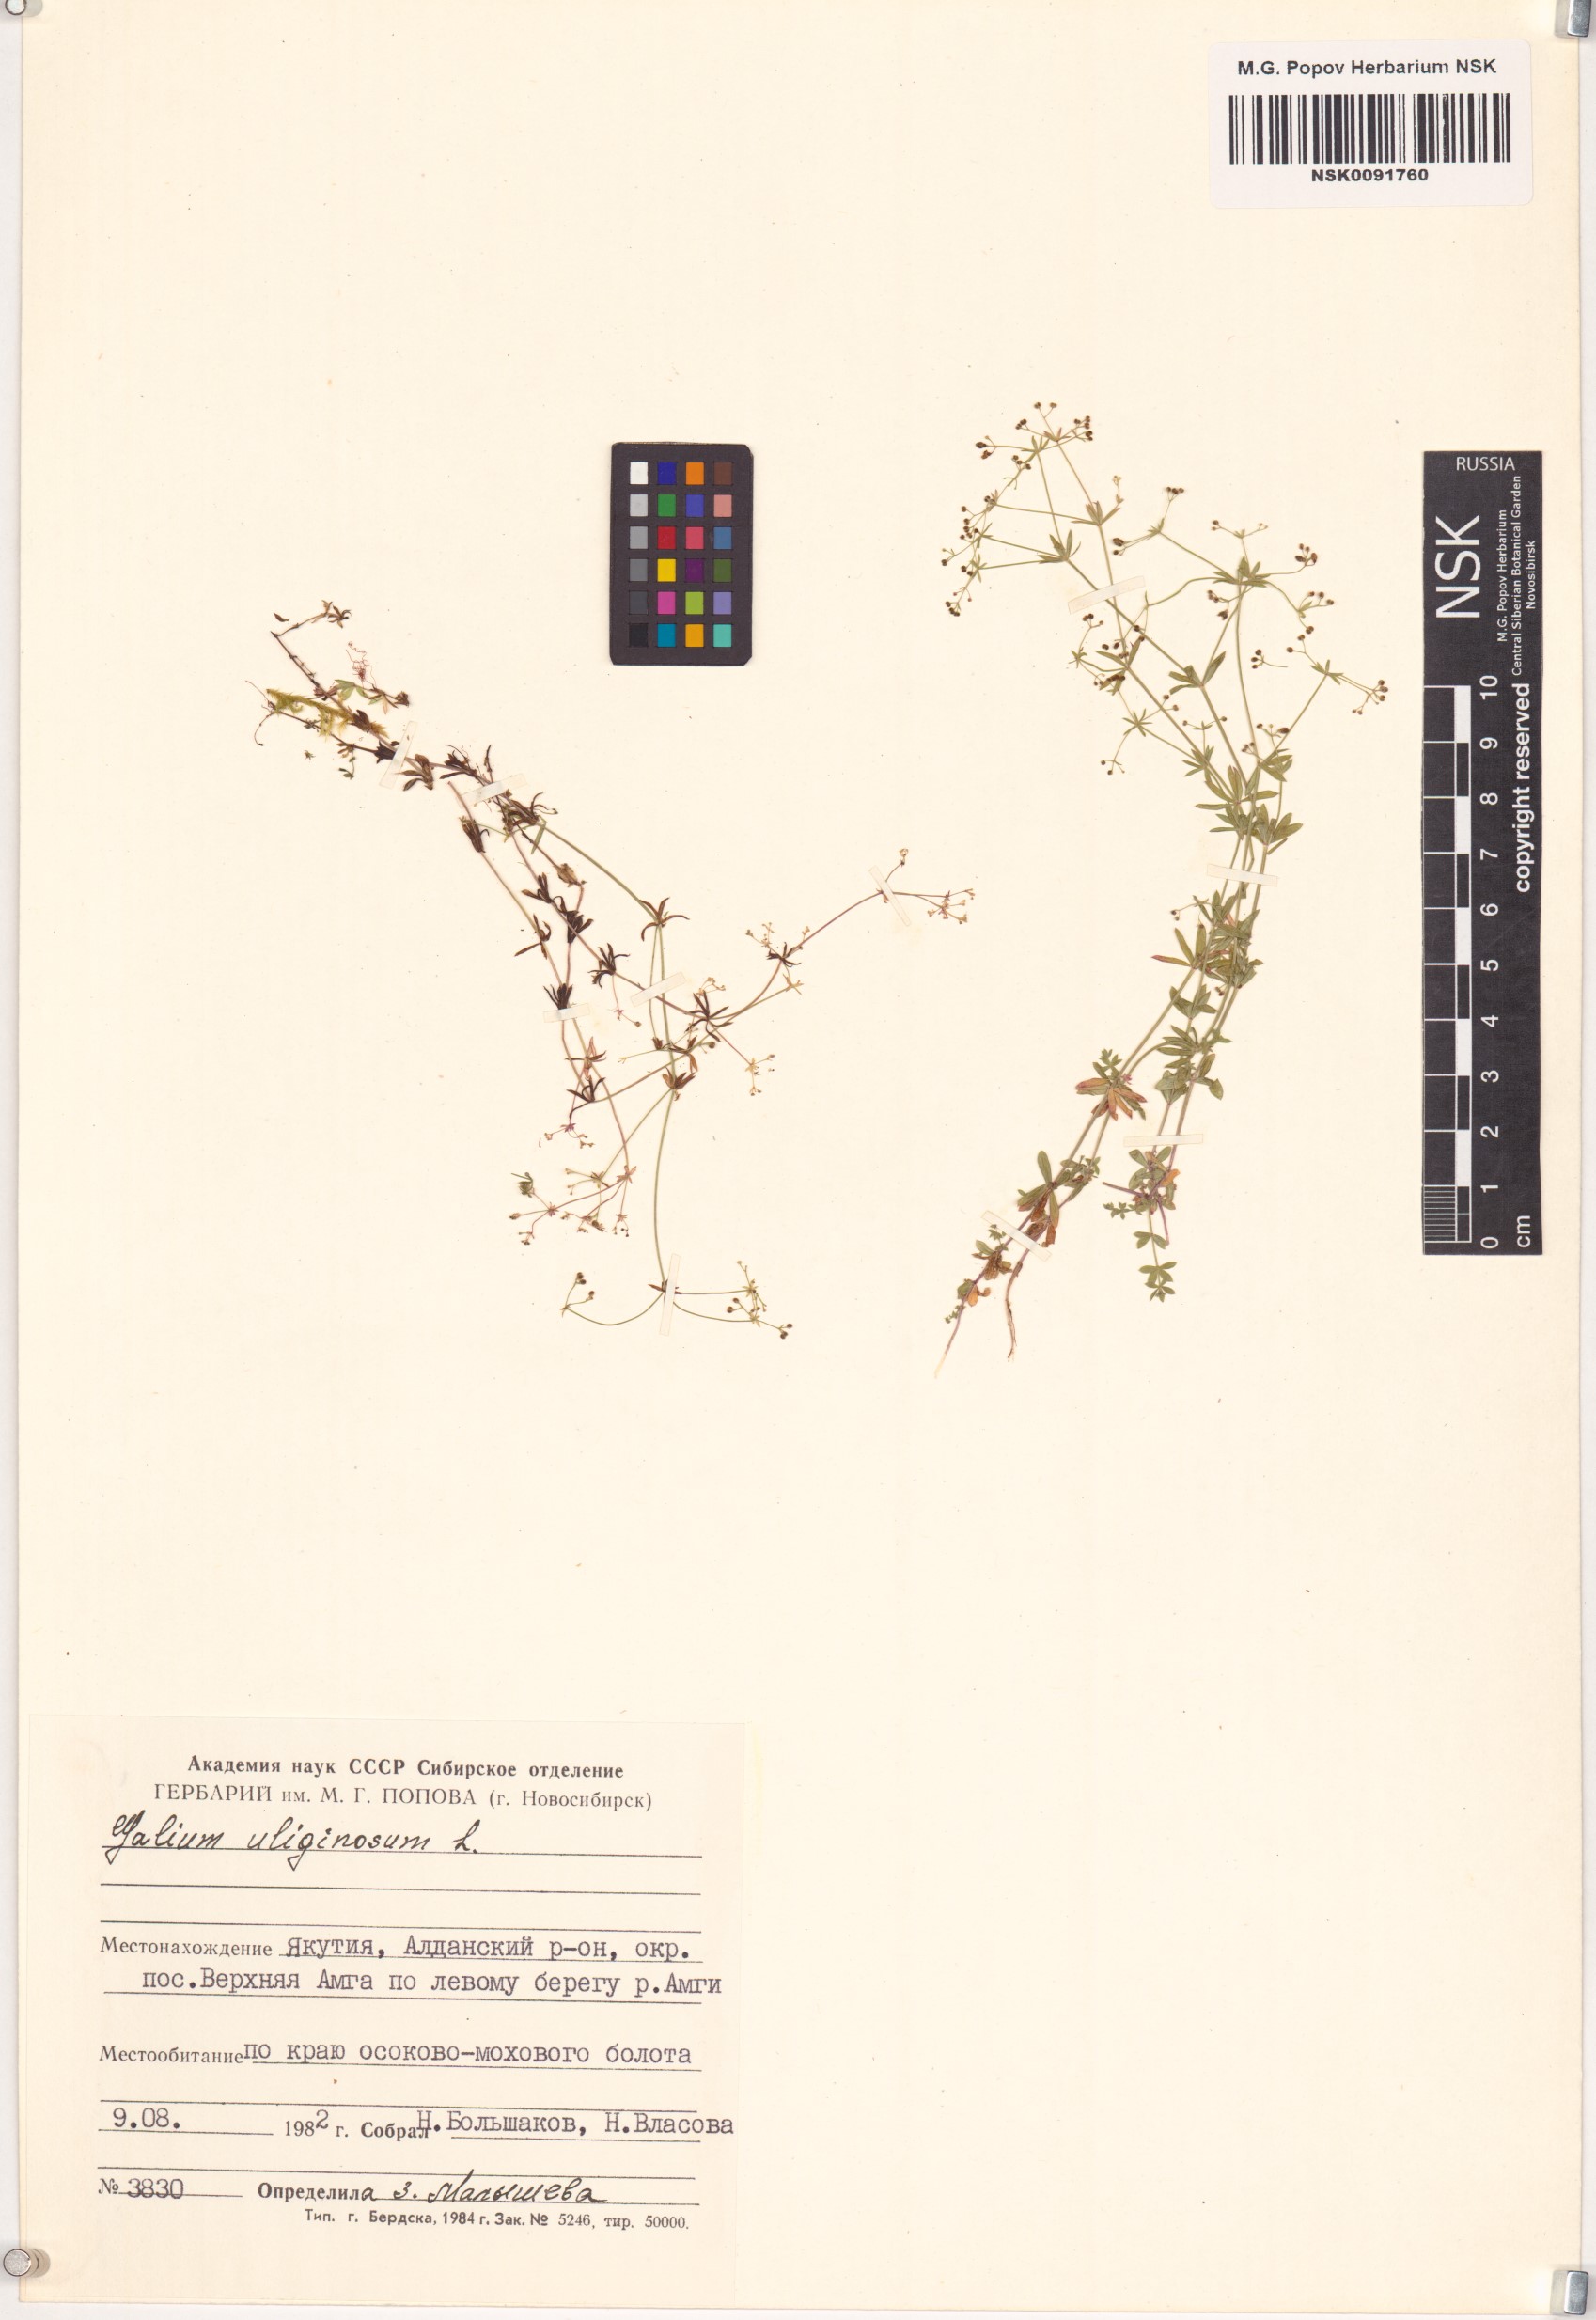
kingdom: Plantae
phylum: Tracheophyta
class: Magnoliopsida
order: Gentianales
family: Rubiaceae
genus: Galium
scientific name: Galium uliginosum
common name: Fen bedstraw
